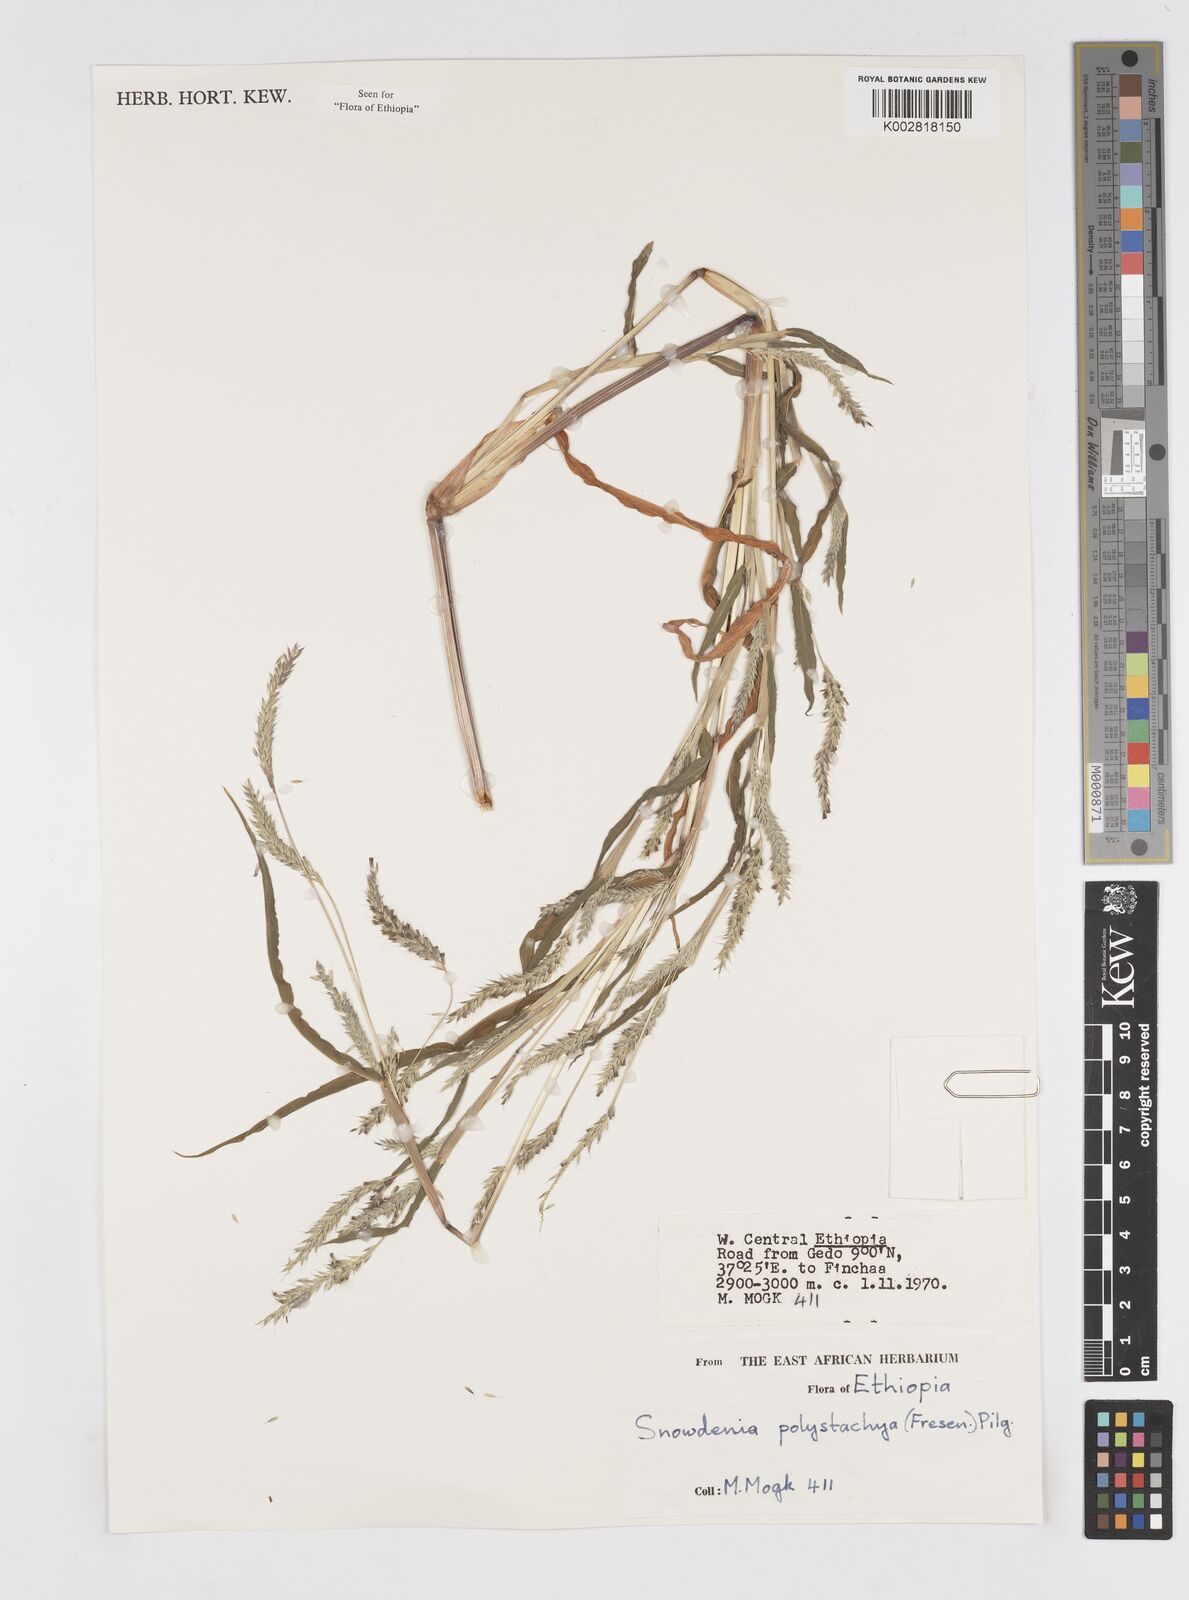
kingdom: Plantae
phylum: Tracheophyta
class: Liliopsida
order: Poales
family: Poaceae
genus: Snowdenia
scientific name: Snowdenia polystachya
